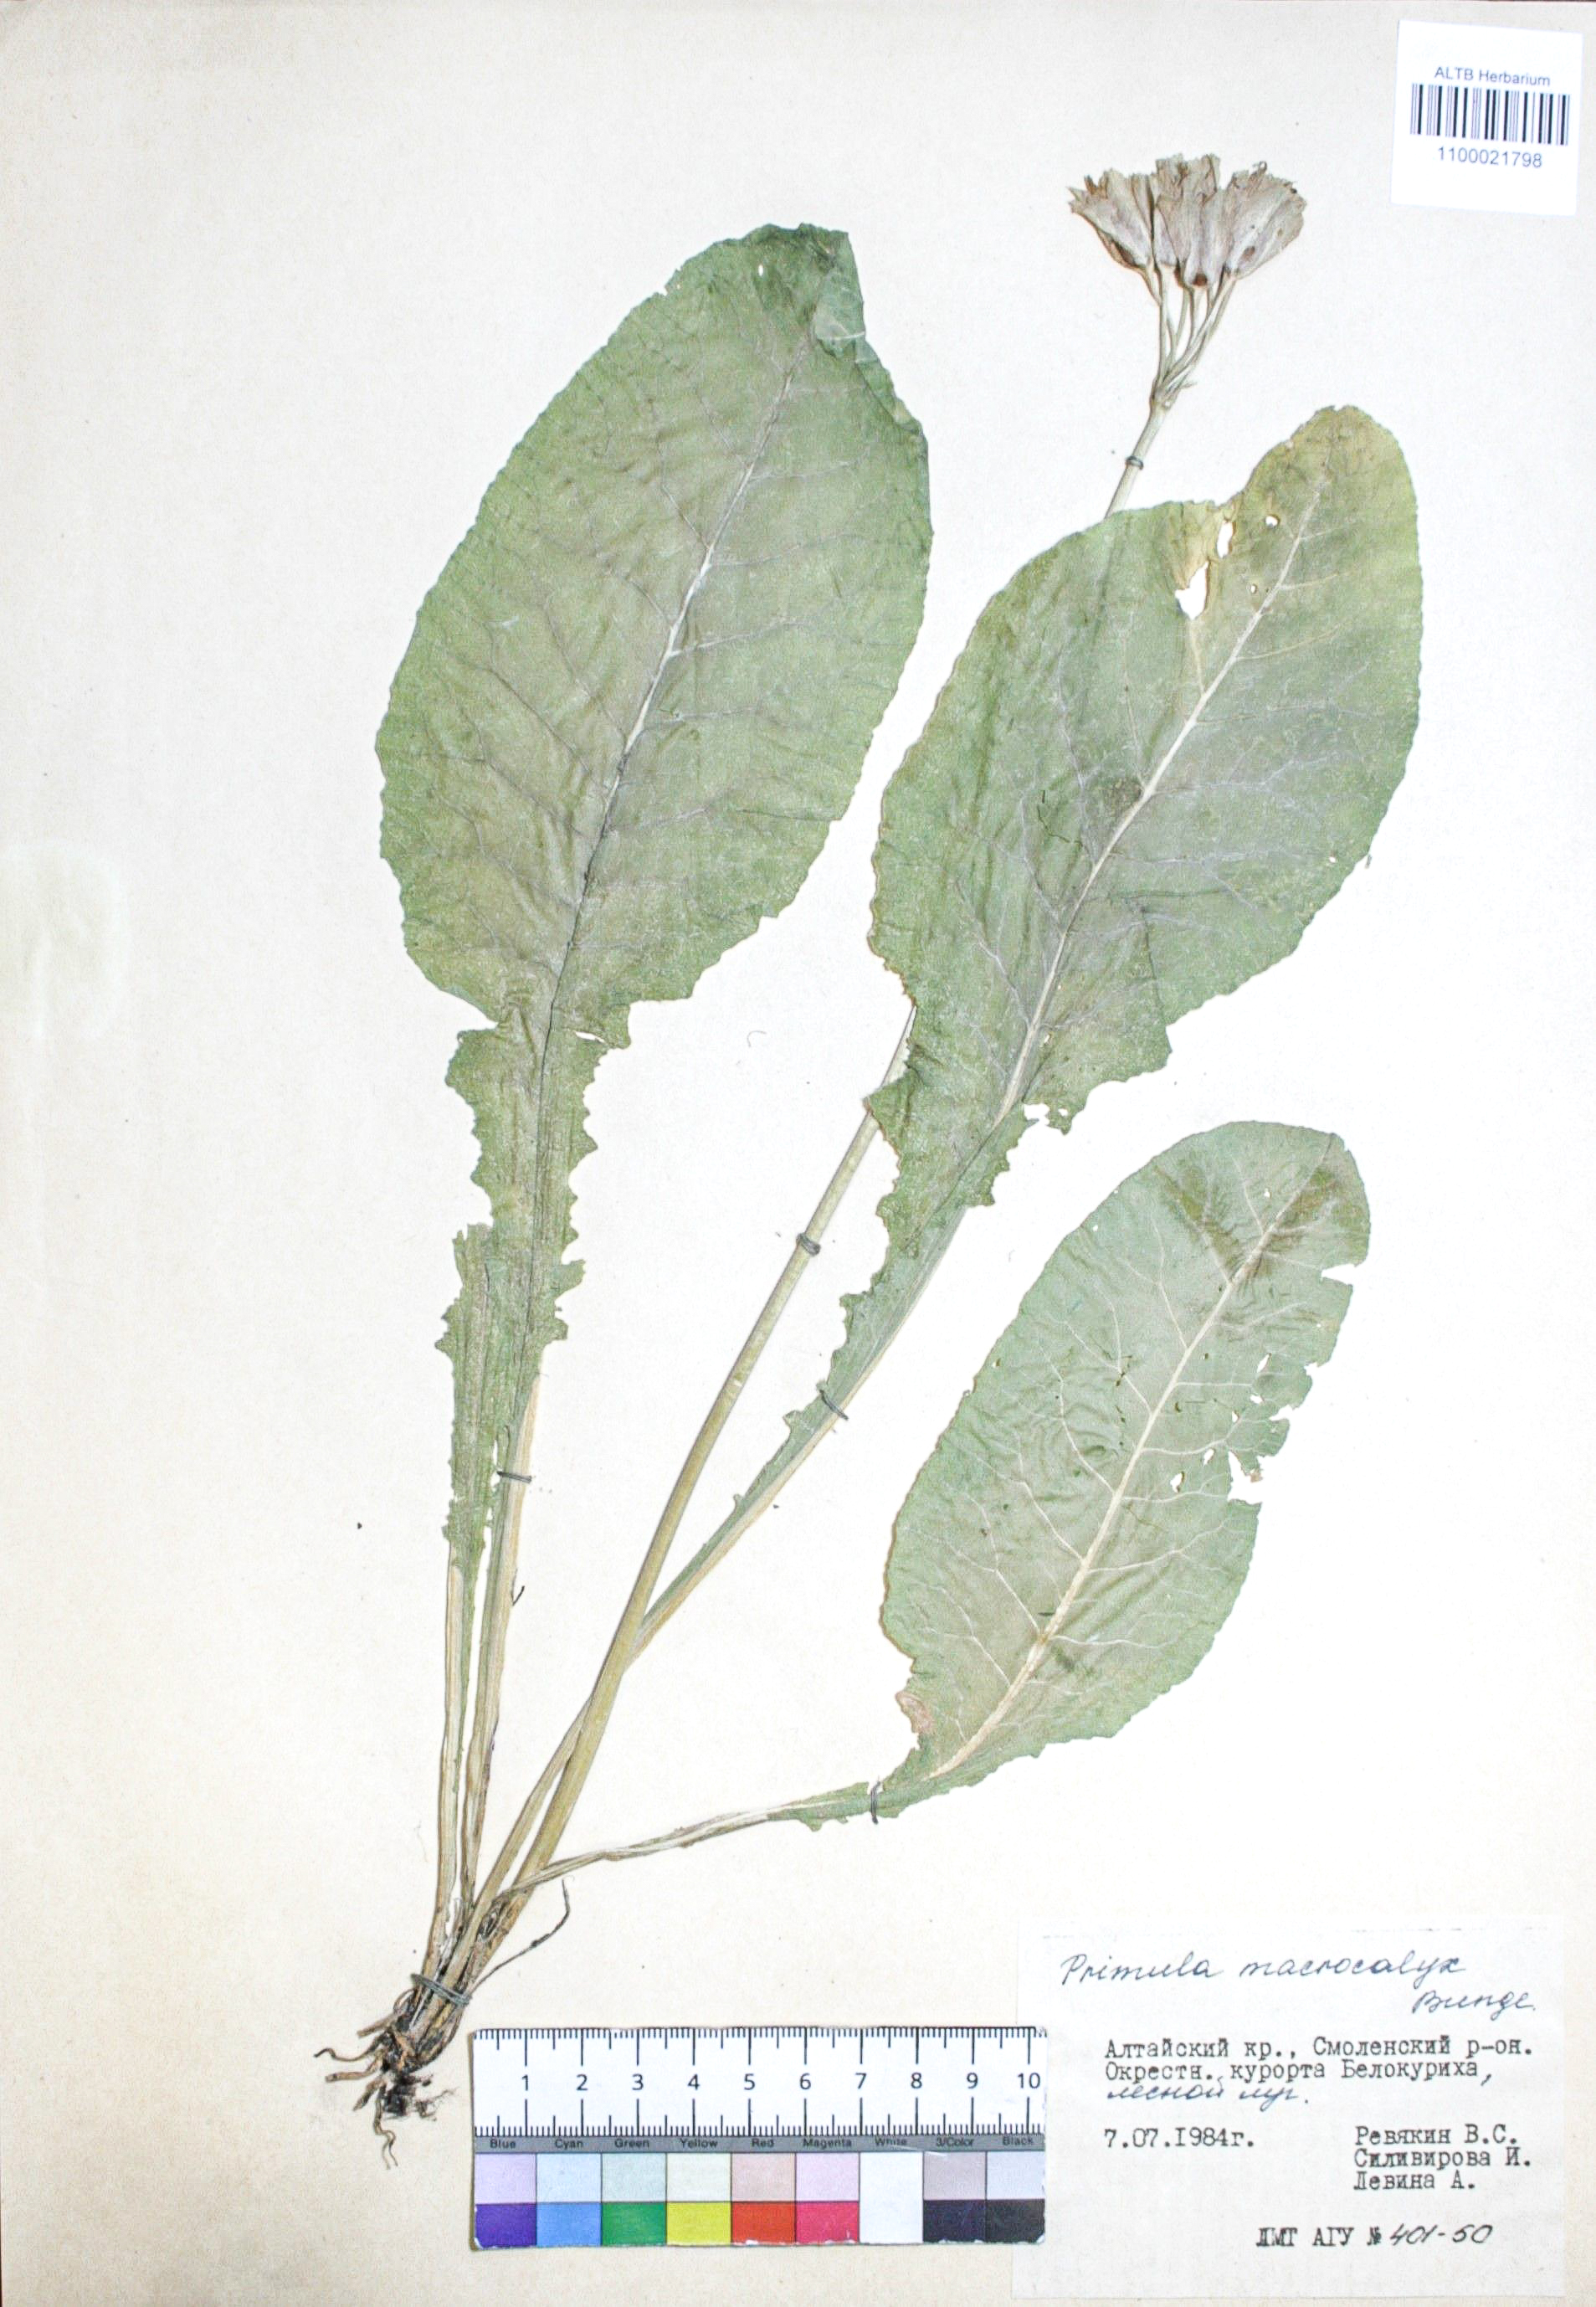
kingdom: Plantae
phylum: Tracheophyta
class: Magnoliopsida
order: Ericales
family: Primulaceae
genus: Primula
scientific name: Primula veris
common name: Cowslip
